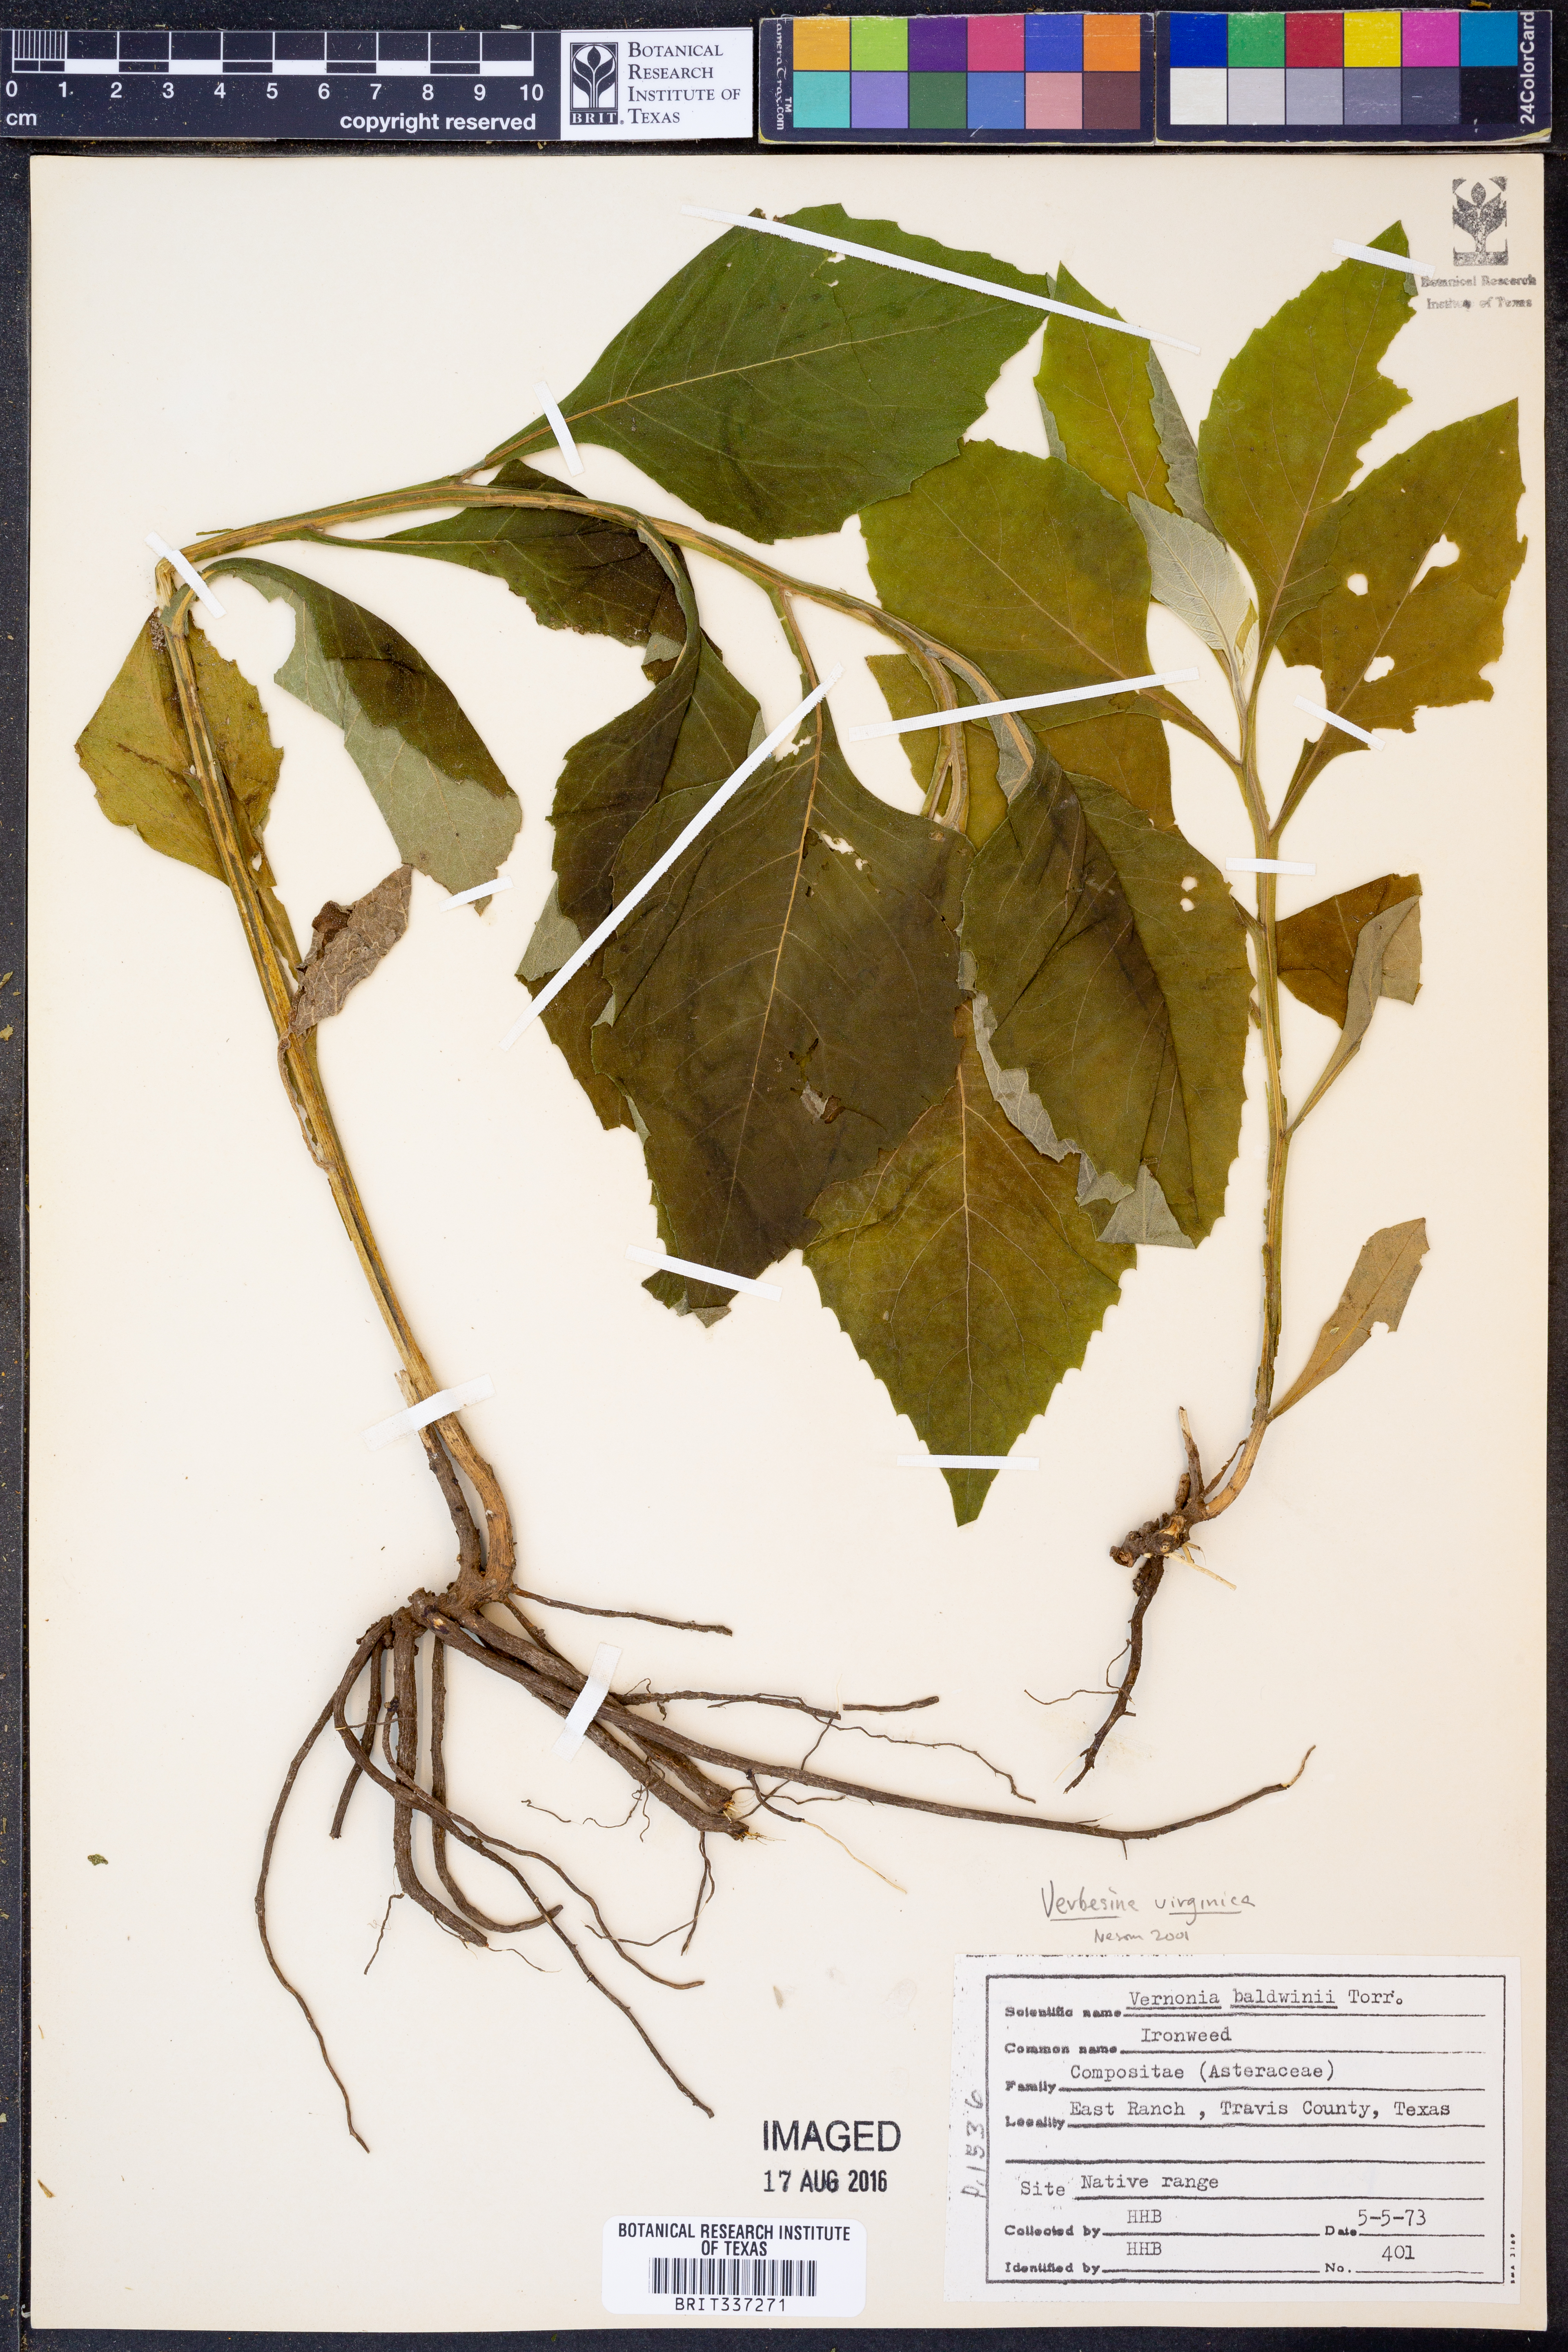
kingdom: Plantae
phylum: Tracheophyta
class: Magnoliopsida
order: Asterales
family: Asteraceae
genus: Verbesina
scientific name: Verbesina virginica
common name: Frostweed
